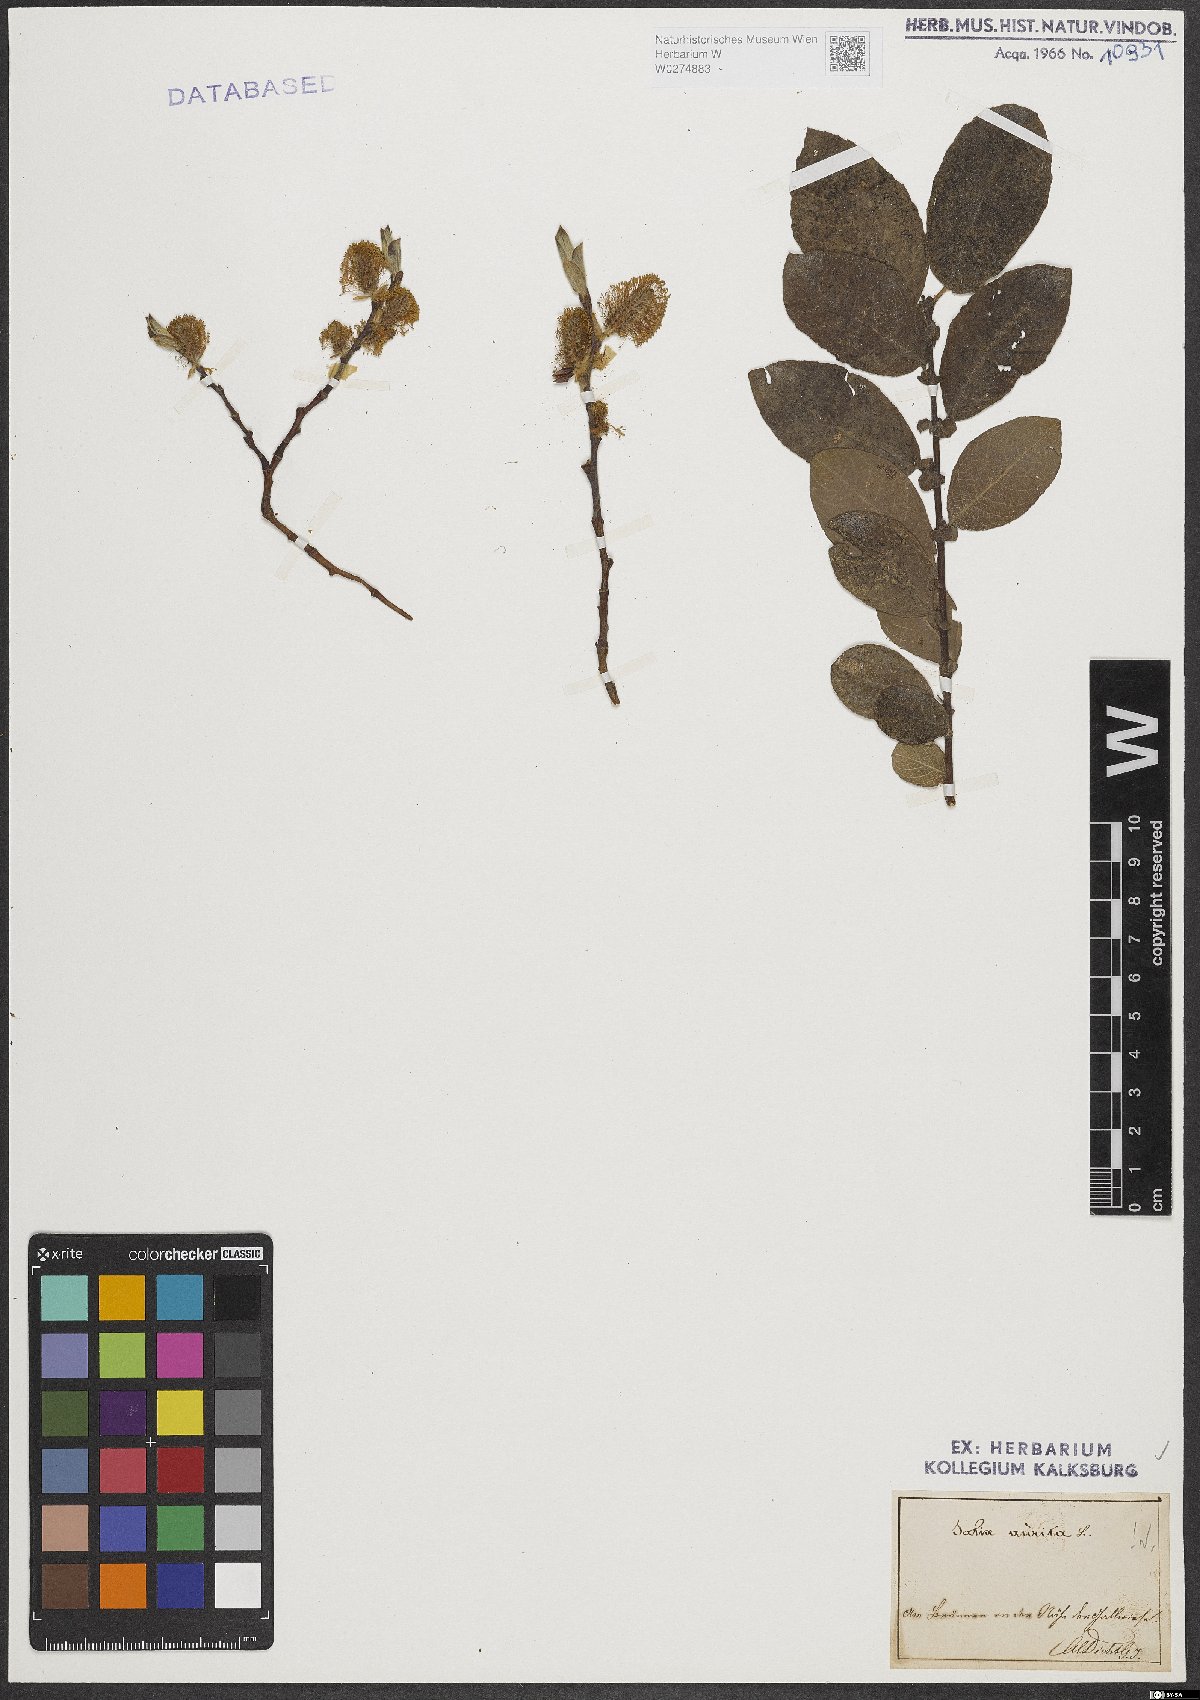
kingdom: Plantae
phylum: Tracheophyta
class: Magnoliopsida
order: Malpighiales
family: Salicaceae
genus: Salix
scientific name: Salix aurita
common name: Eared willow
